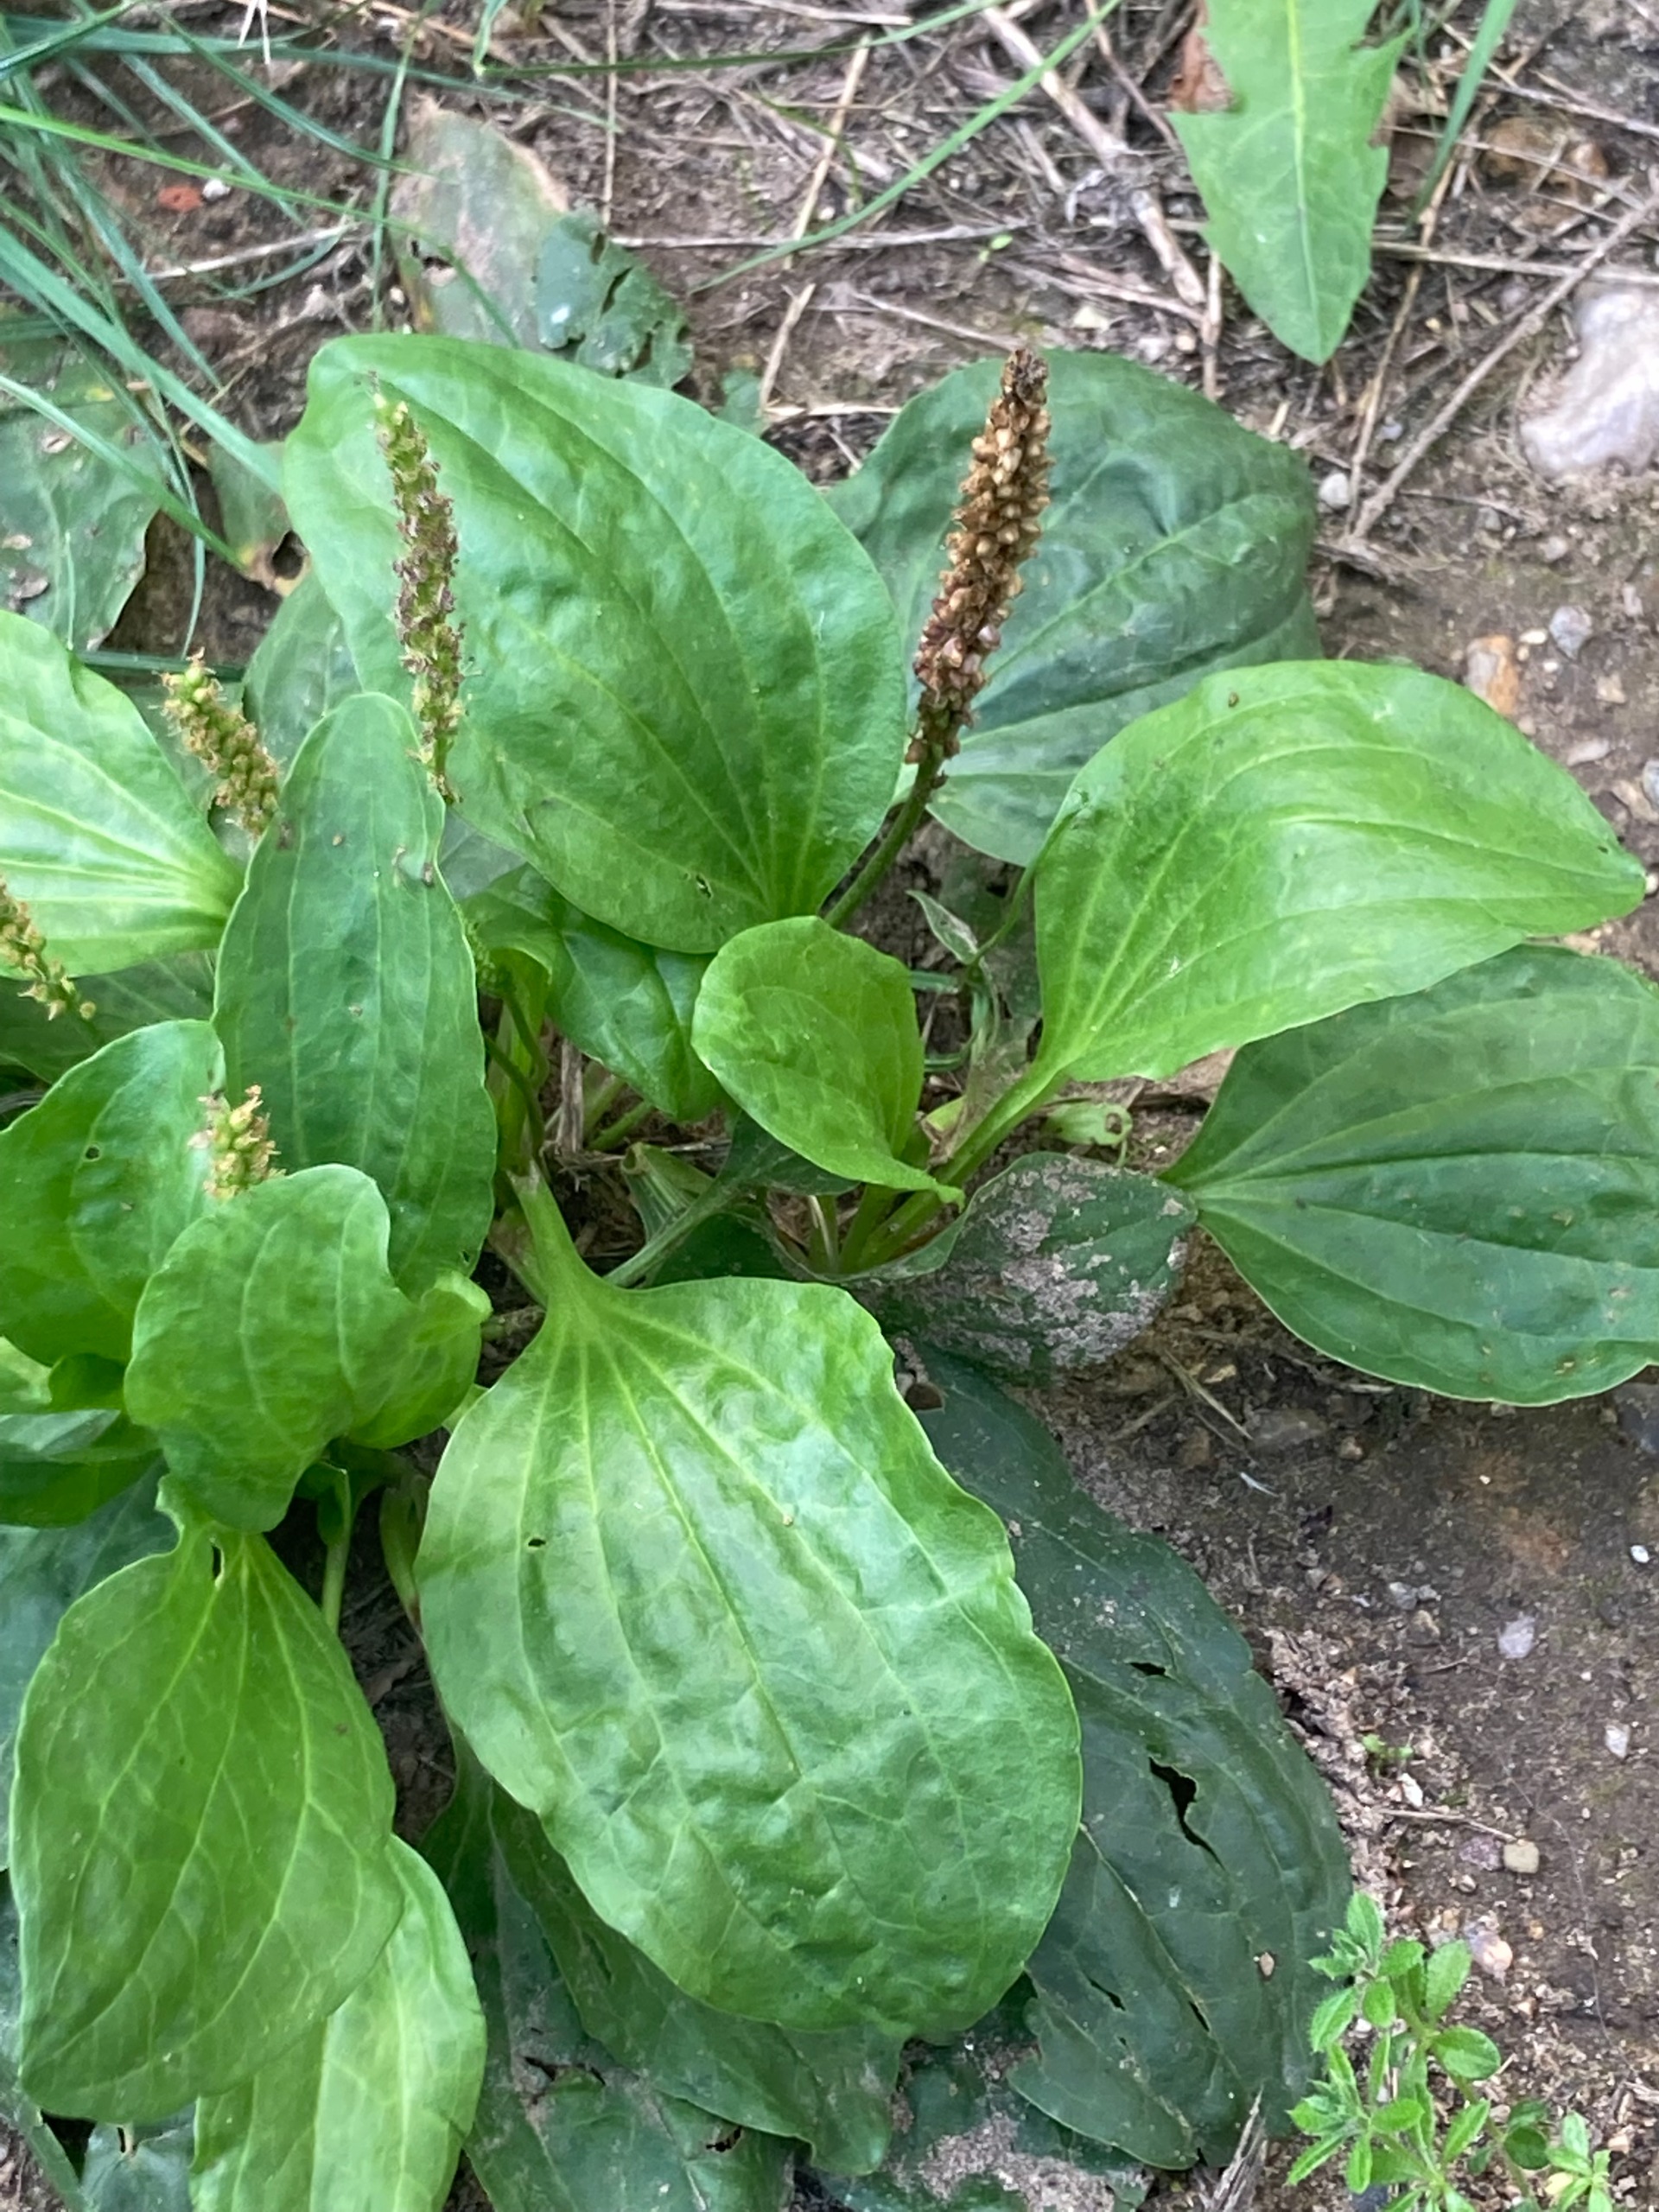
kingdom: Plantae
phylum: Tracheophyta
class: Magnoliopsida
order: Lamiales
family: Plantaginaceae
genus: Plantago
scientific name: Plantago major
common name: Glat vejbred
